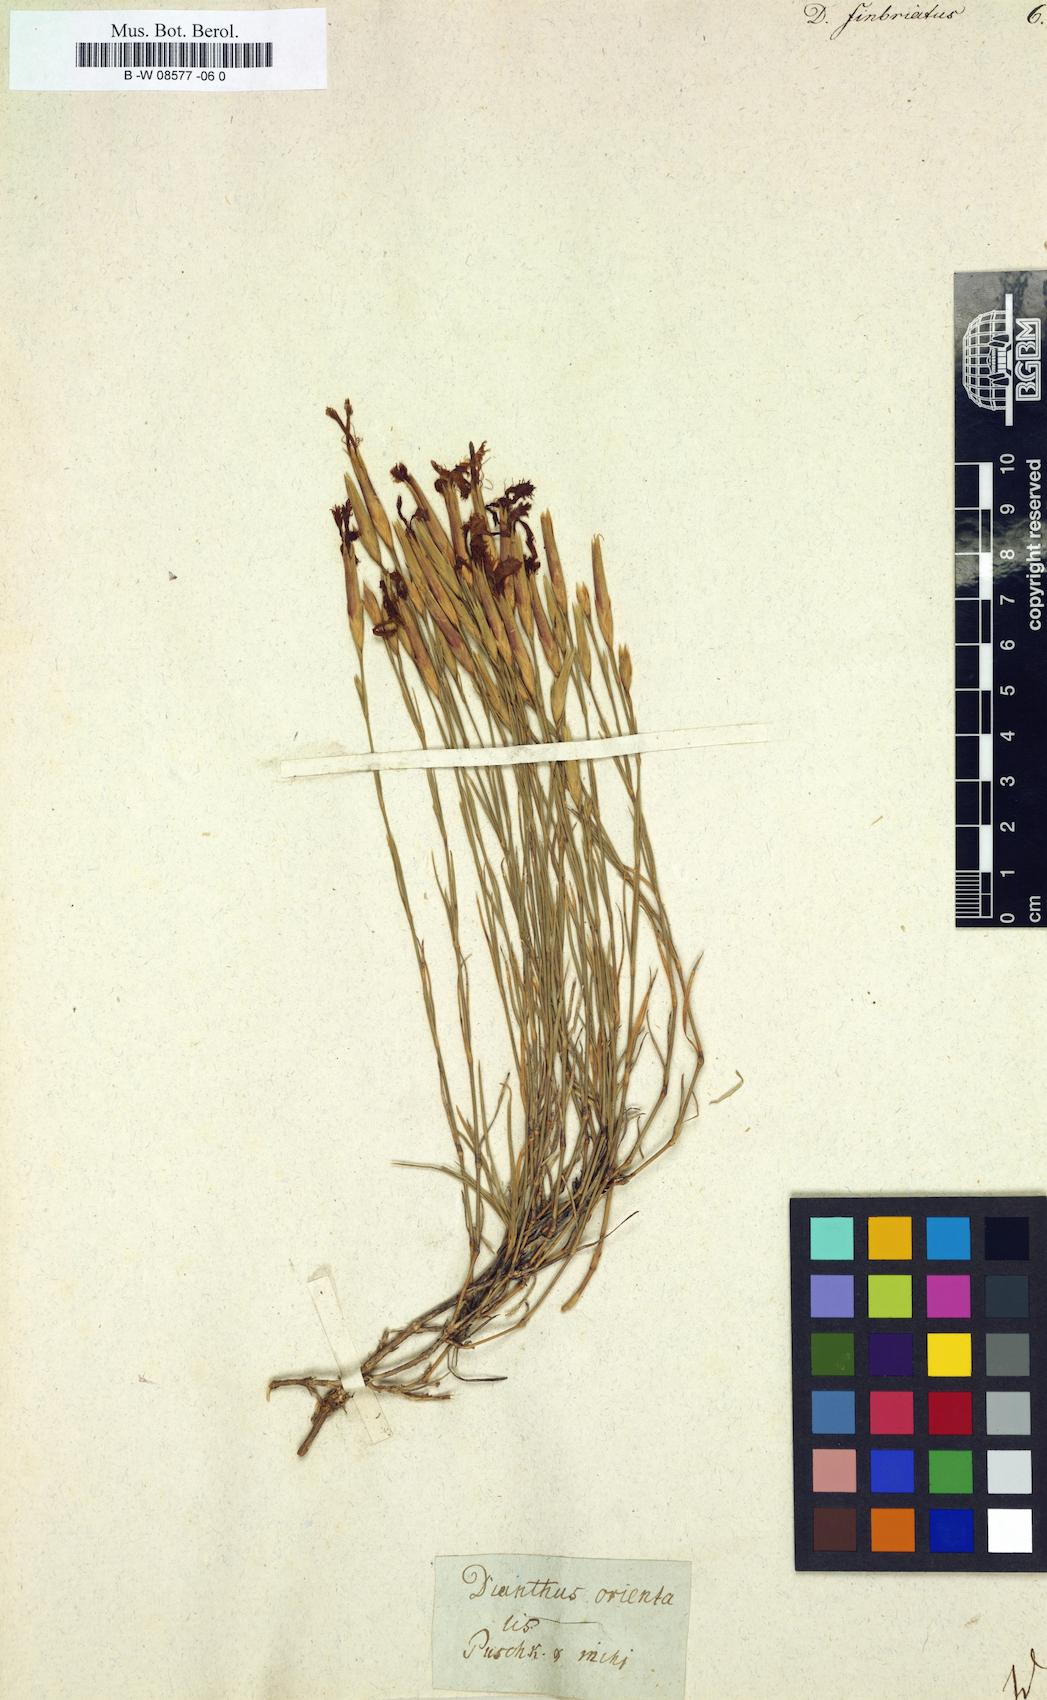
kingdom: Plantae
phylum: Tracheophyta
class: Magnoliopsida
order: Caryophyllales
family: Caryophyllaceae
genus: Dianthus
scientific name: Dianthus
